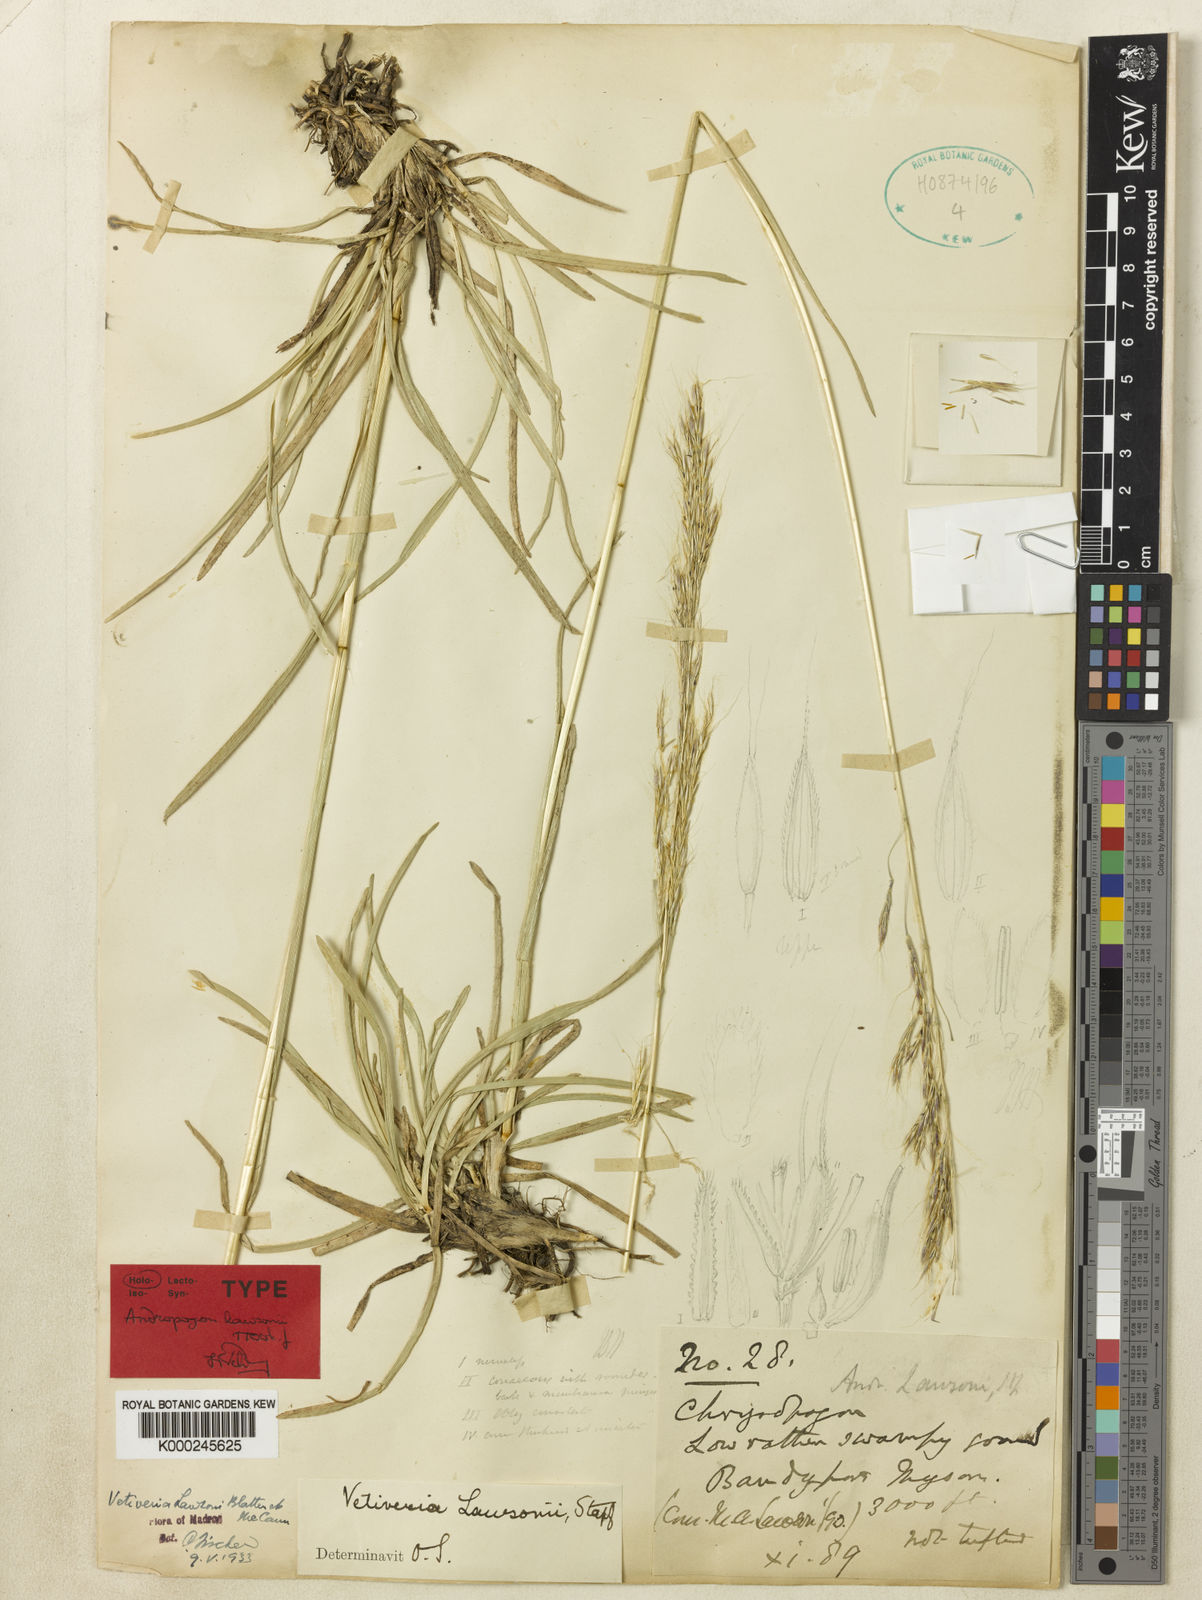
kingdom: Plantae
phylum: Tracheophyta
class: Liliopsida
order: Poales
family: Poaceae
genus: Chrysopogon
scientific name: Chrysopogon lawsonii
